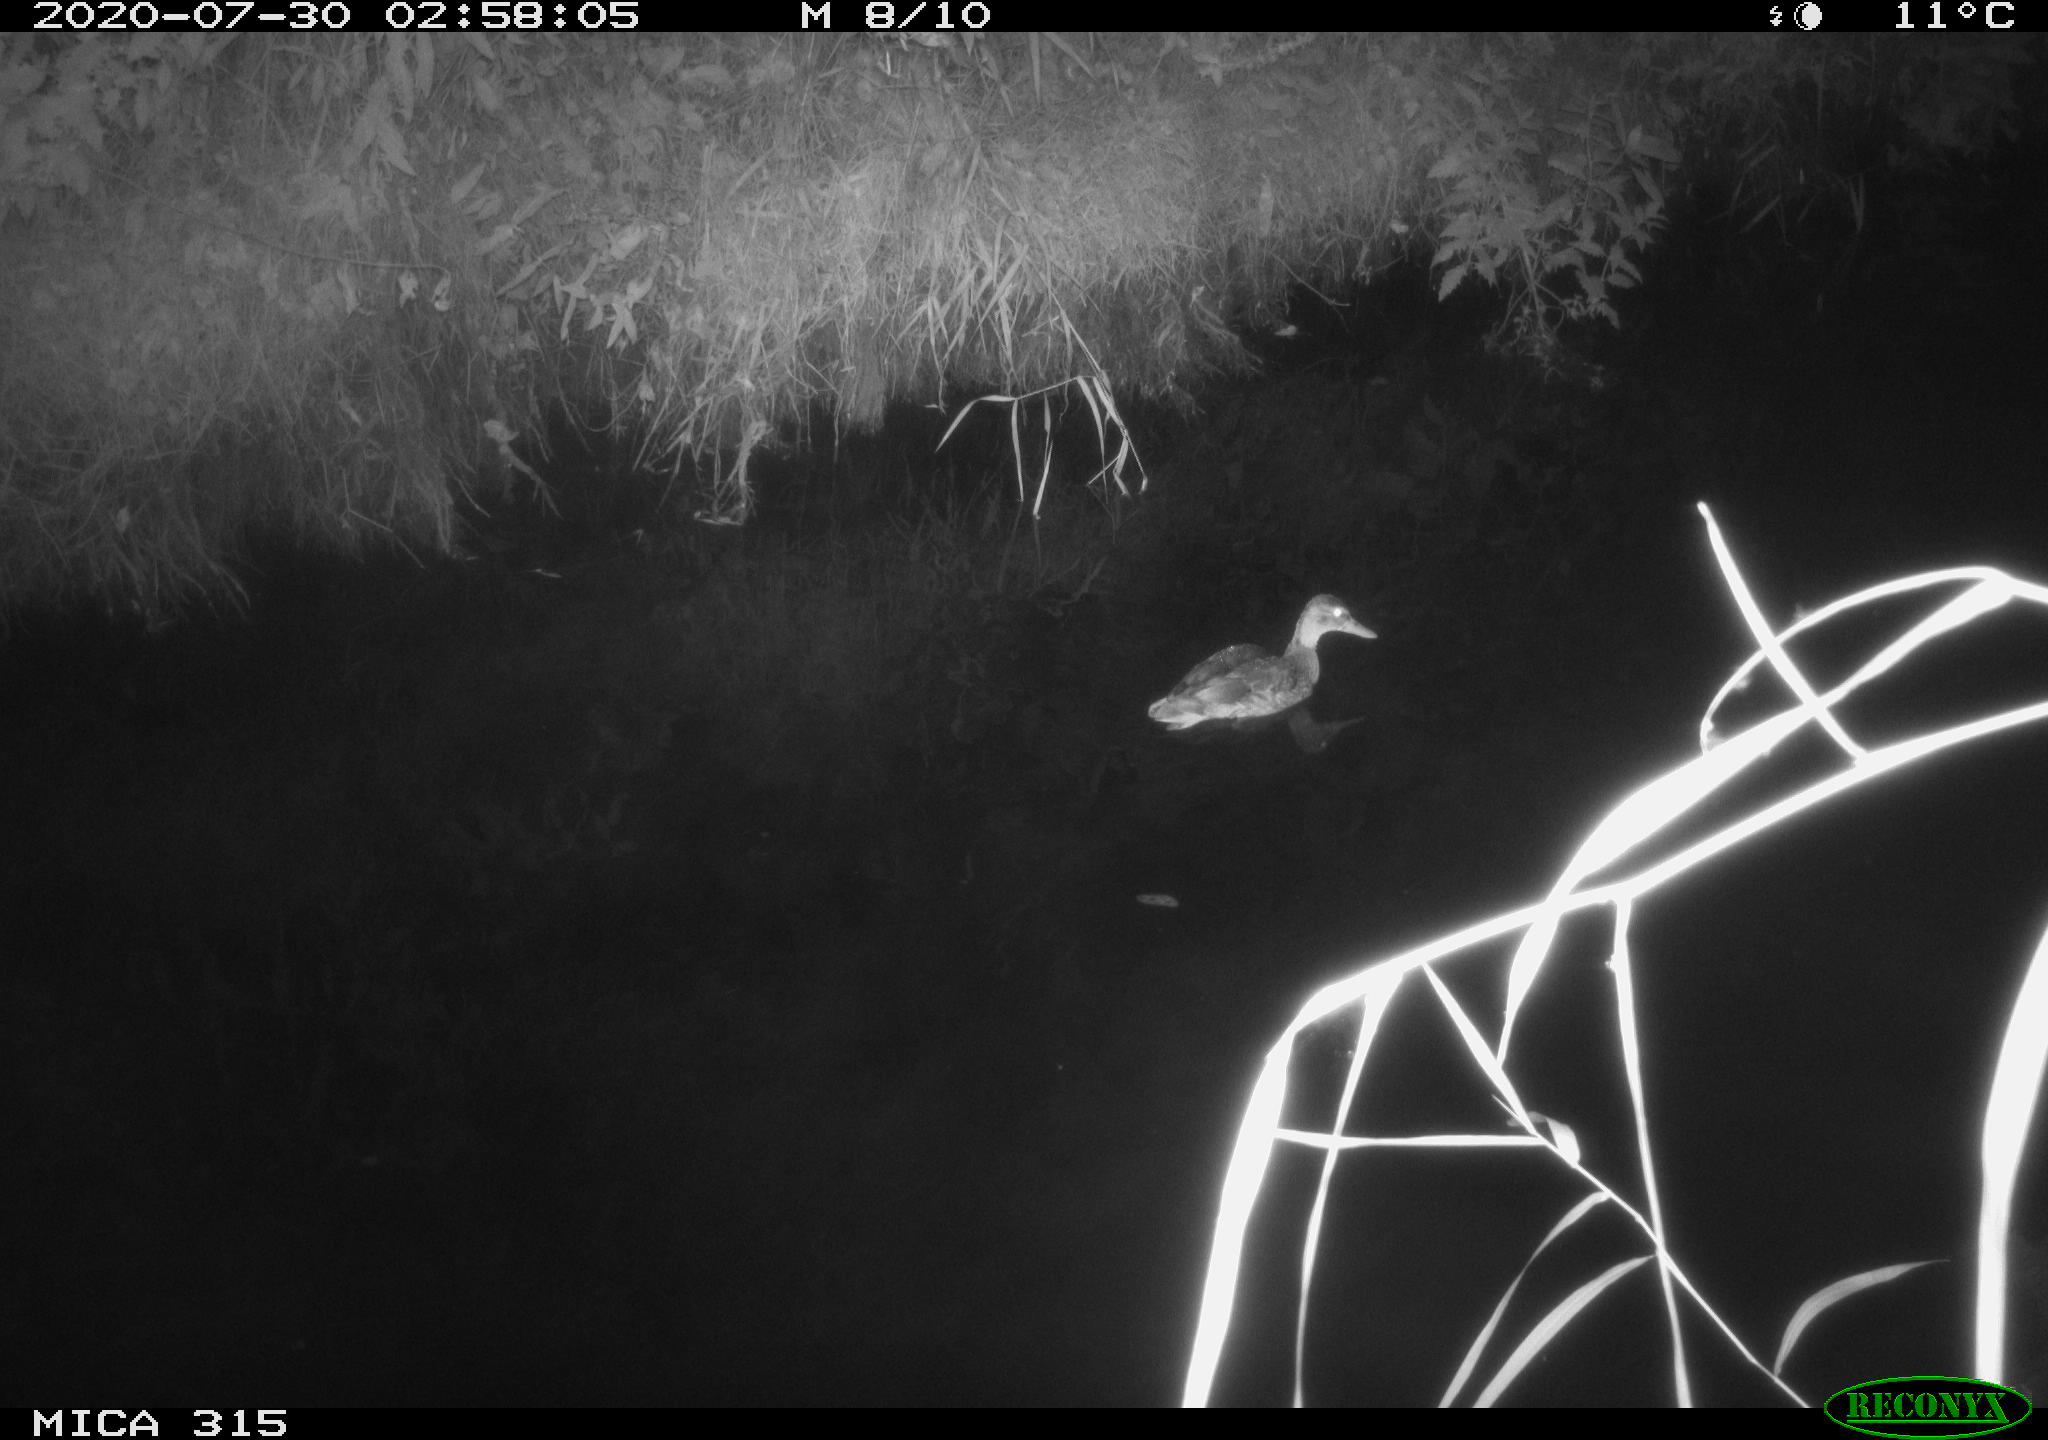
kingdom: Animalia
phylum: Chordata
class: Aves
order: Anseriformes
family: Anatidae
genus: Anas
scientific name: Anas platyrhynchos
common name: Mallard
